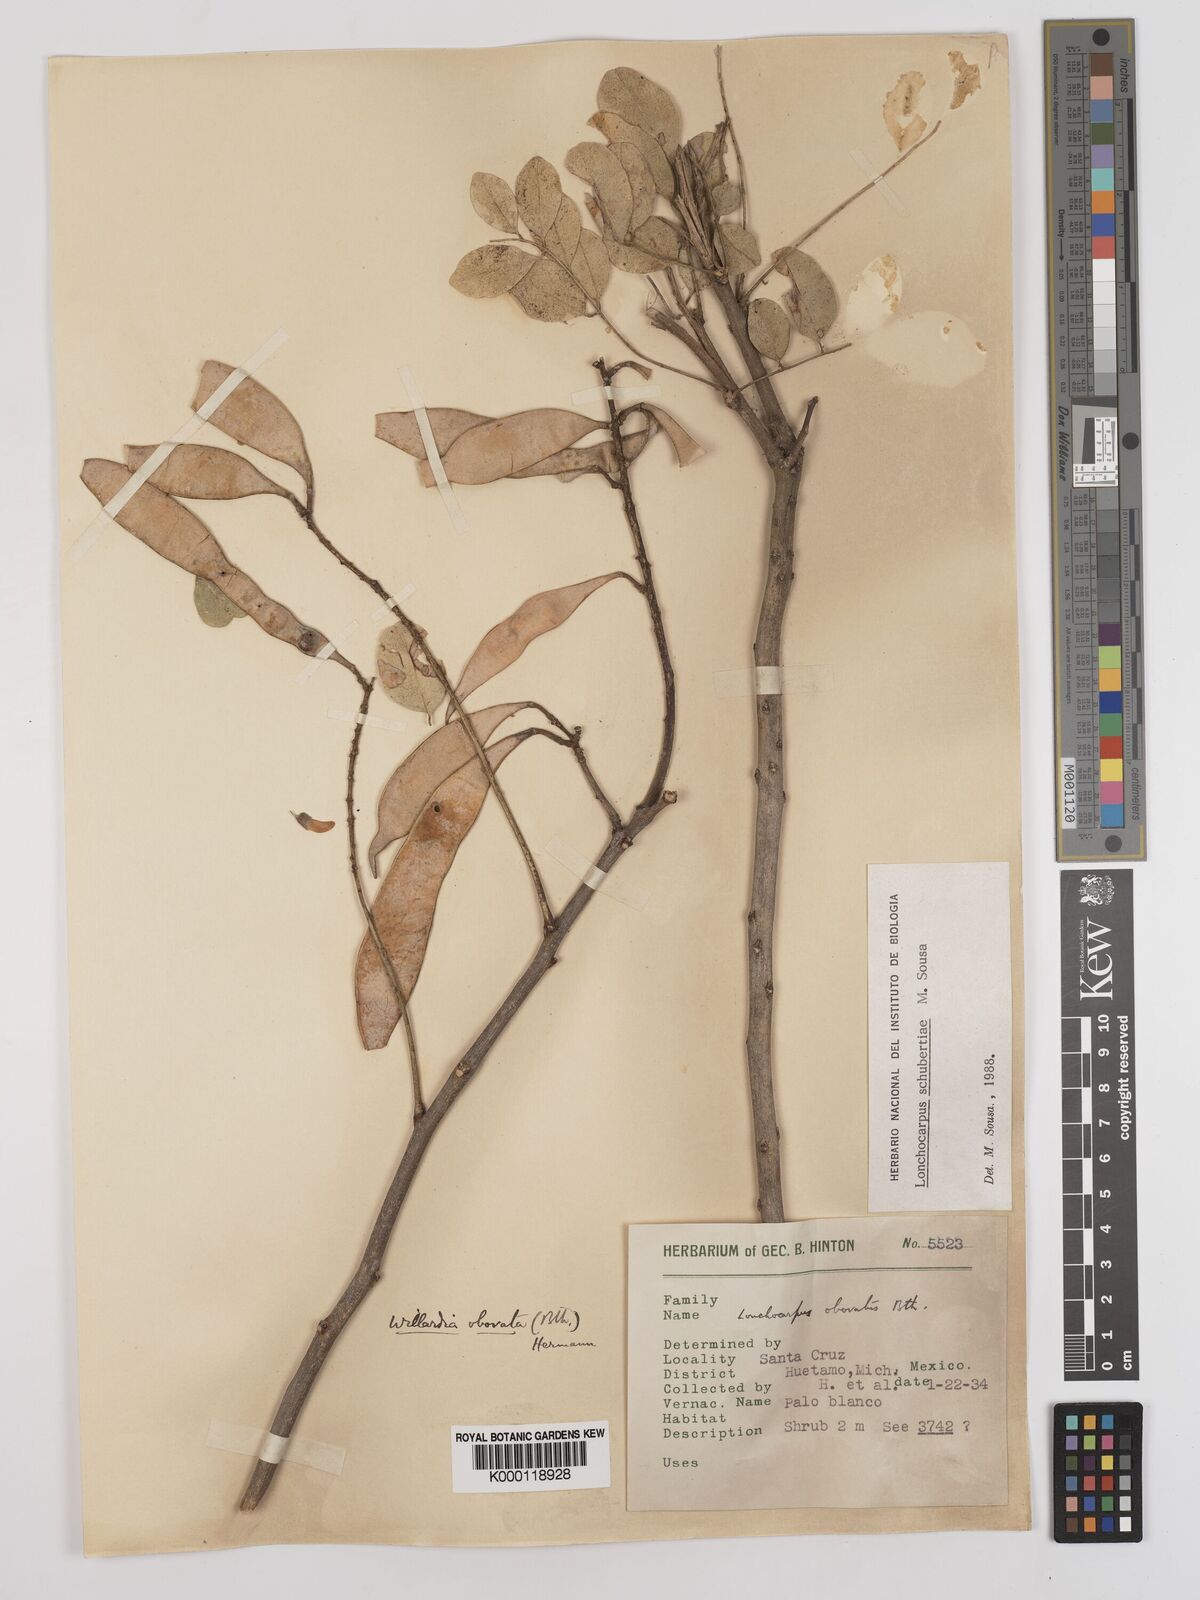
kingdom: Plantae
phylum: Tracheophyta
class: Magnoliopsida
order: Fabales
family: Fabaceae
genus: Lonchocarpus
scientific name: Lonchocarpus schubertiae
